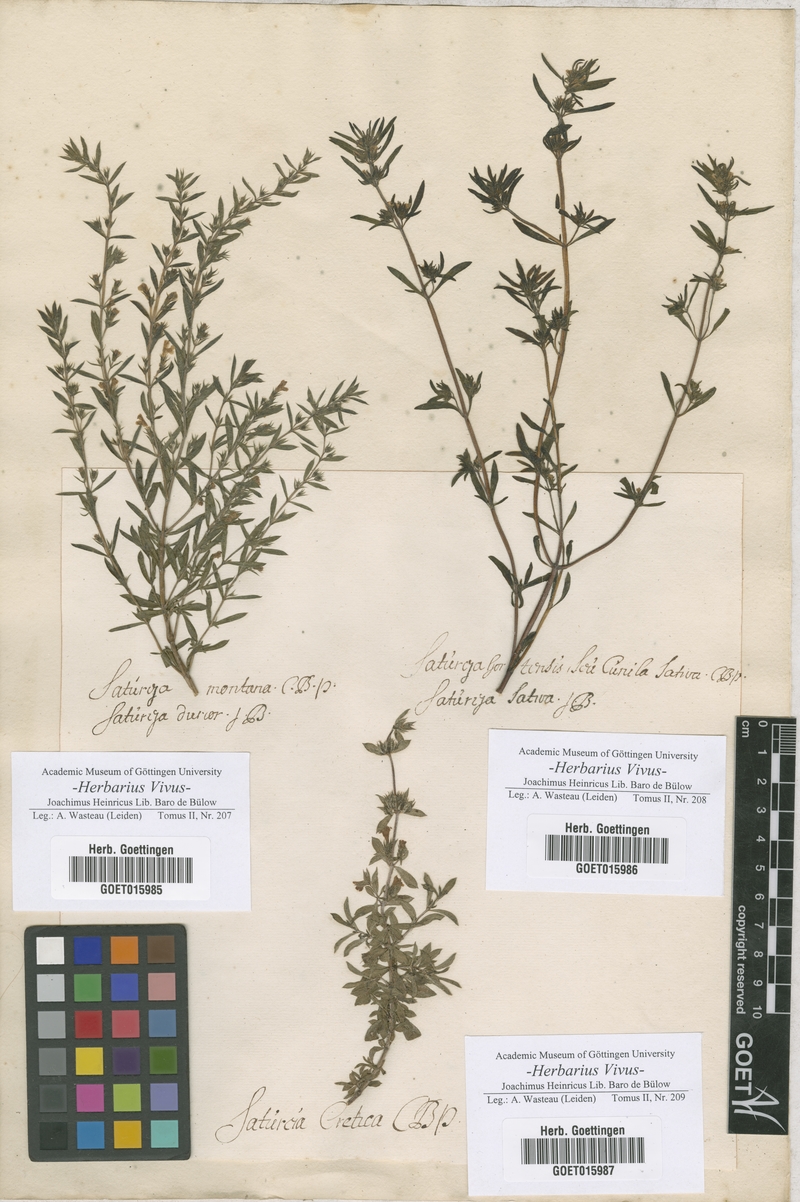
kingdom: Plantae
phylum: Tracheophyta
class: Magnoliopsida
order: Lamiales
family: Lamiaceae
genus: Satureja
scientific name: Satureja
